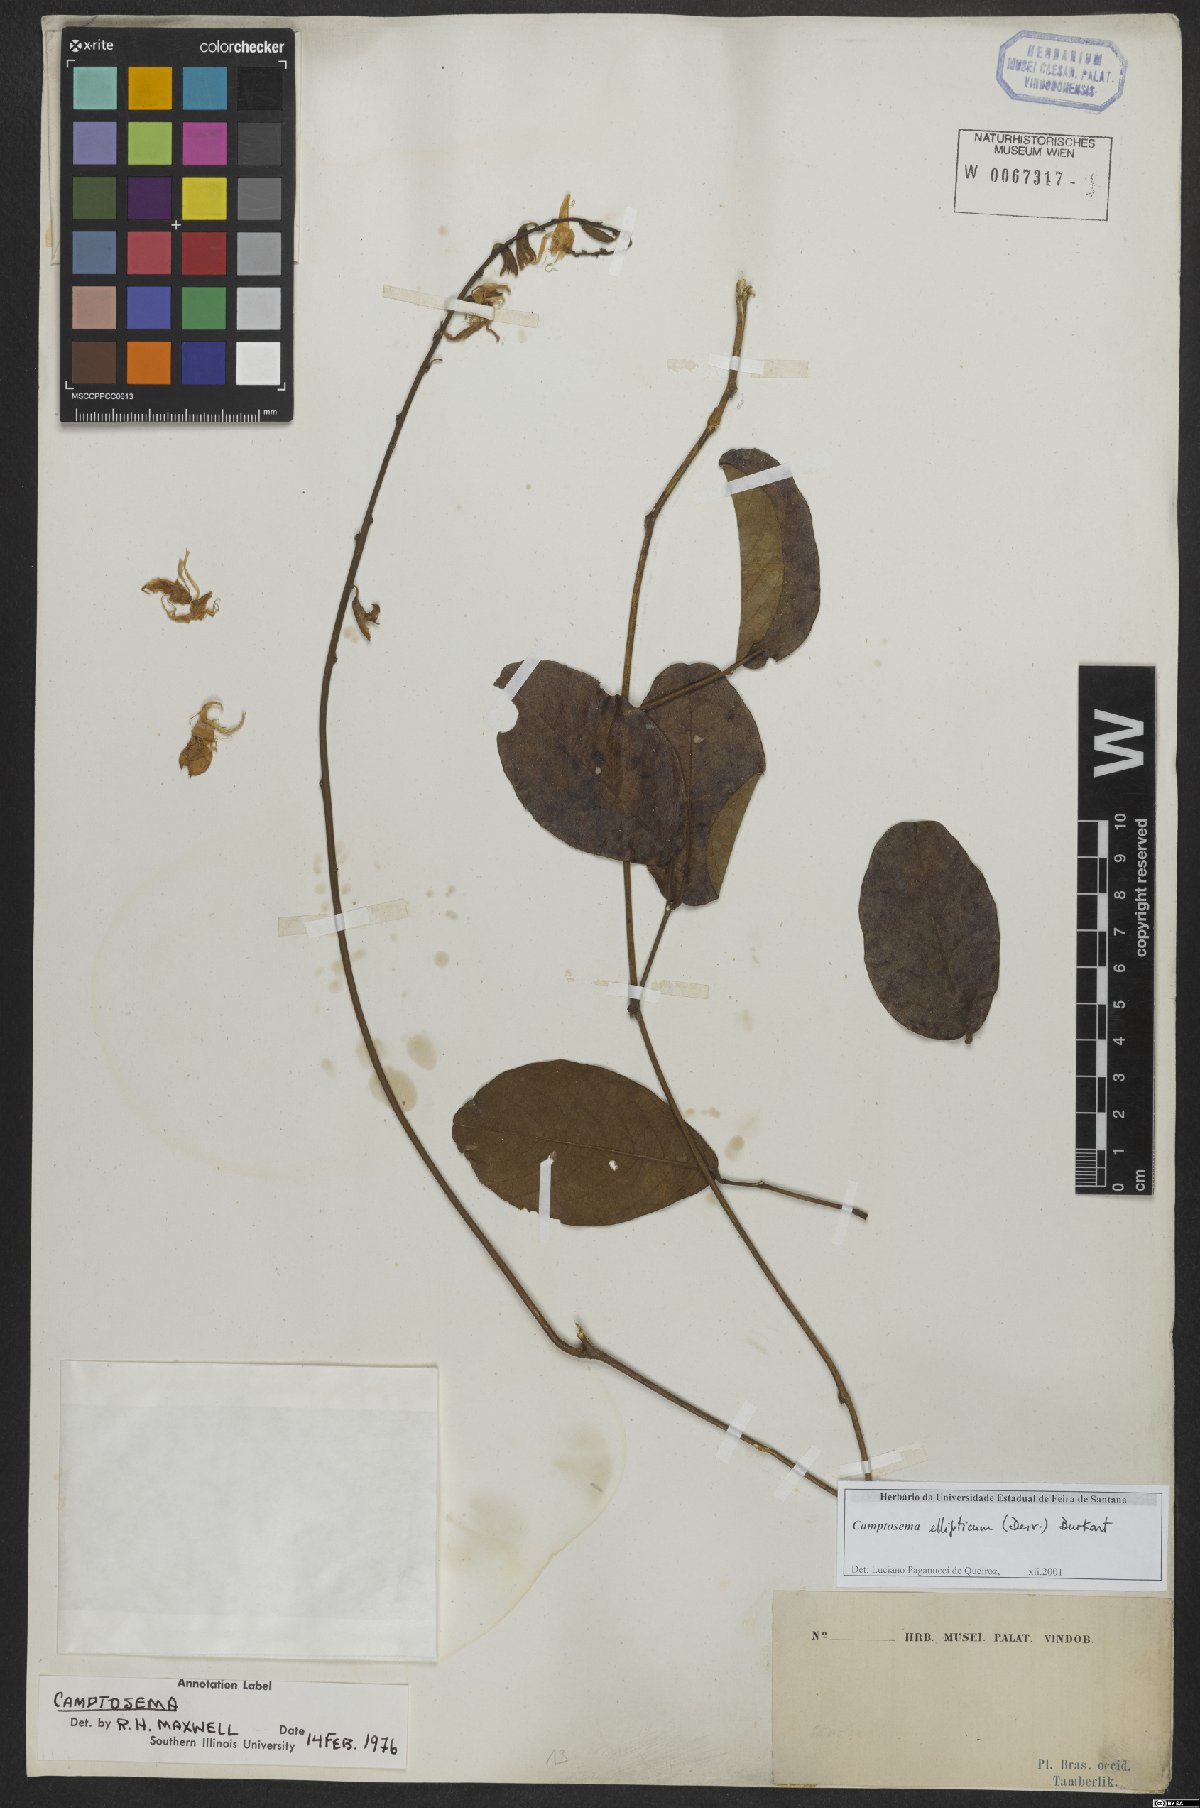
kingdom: Plantae
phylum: Tracheophyta
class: Magnoliopsida
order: Fabales
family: Fabaceae
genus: Cerradicola
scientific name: Cerradicola elliptica
